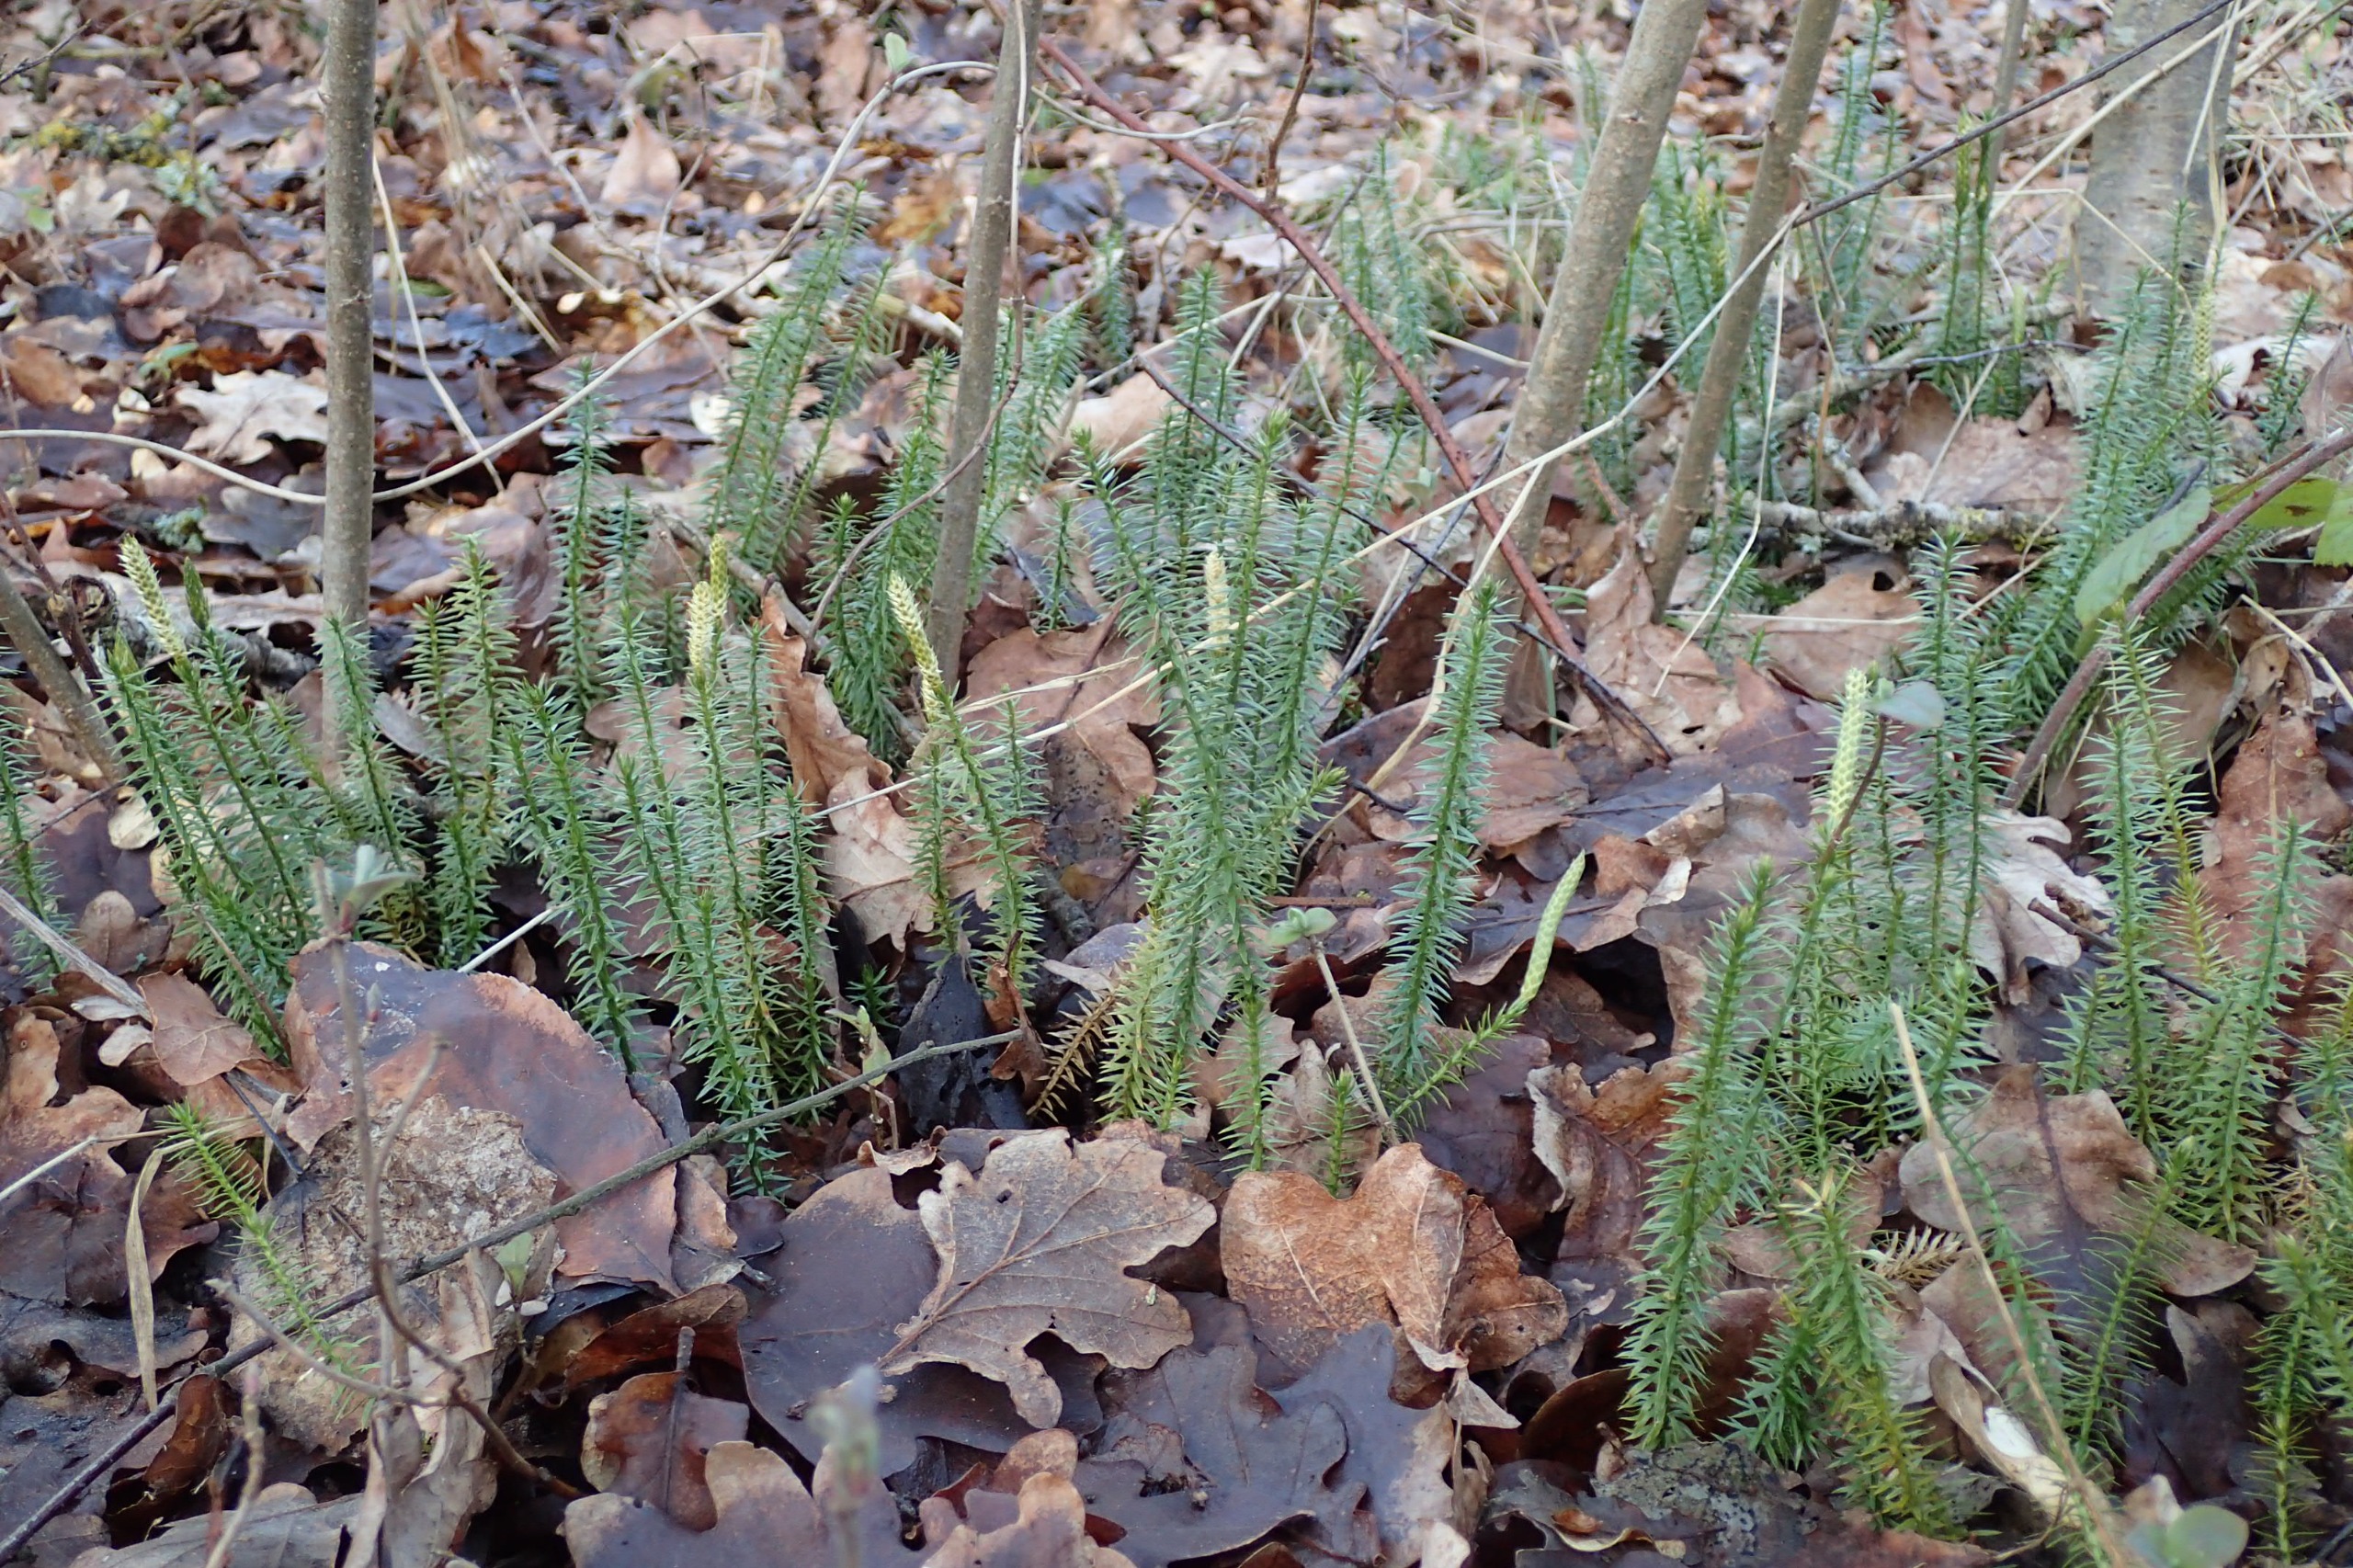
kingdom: Plantae
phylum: Tracheophyta
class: Lycopodiopsida
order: Lycopodiales
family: Lycopodiaceae
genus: Spinulum
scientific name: Spinulum annotinum
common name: Femradet ulvefod
